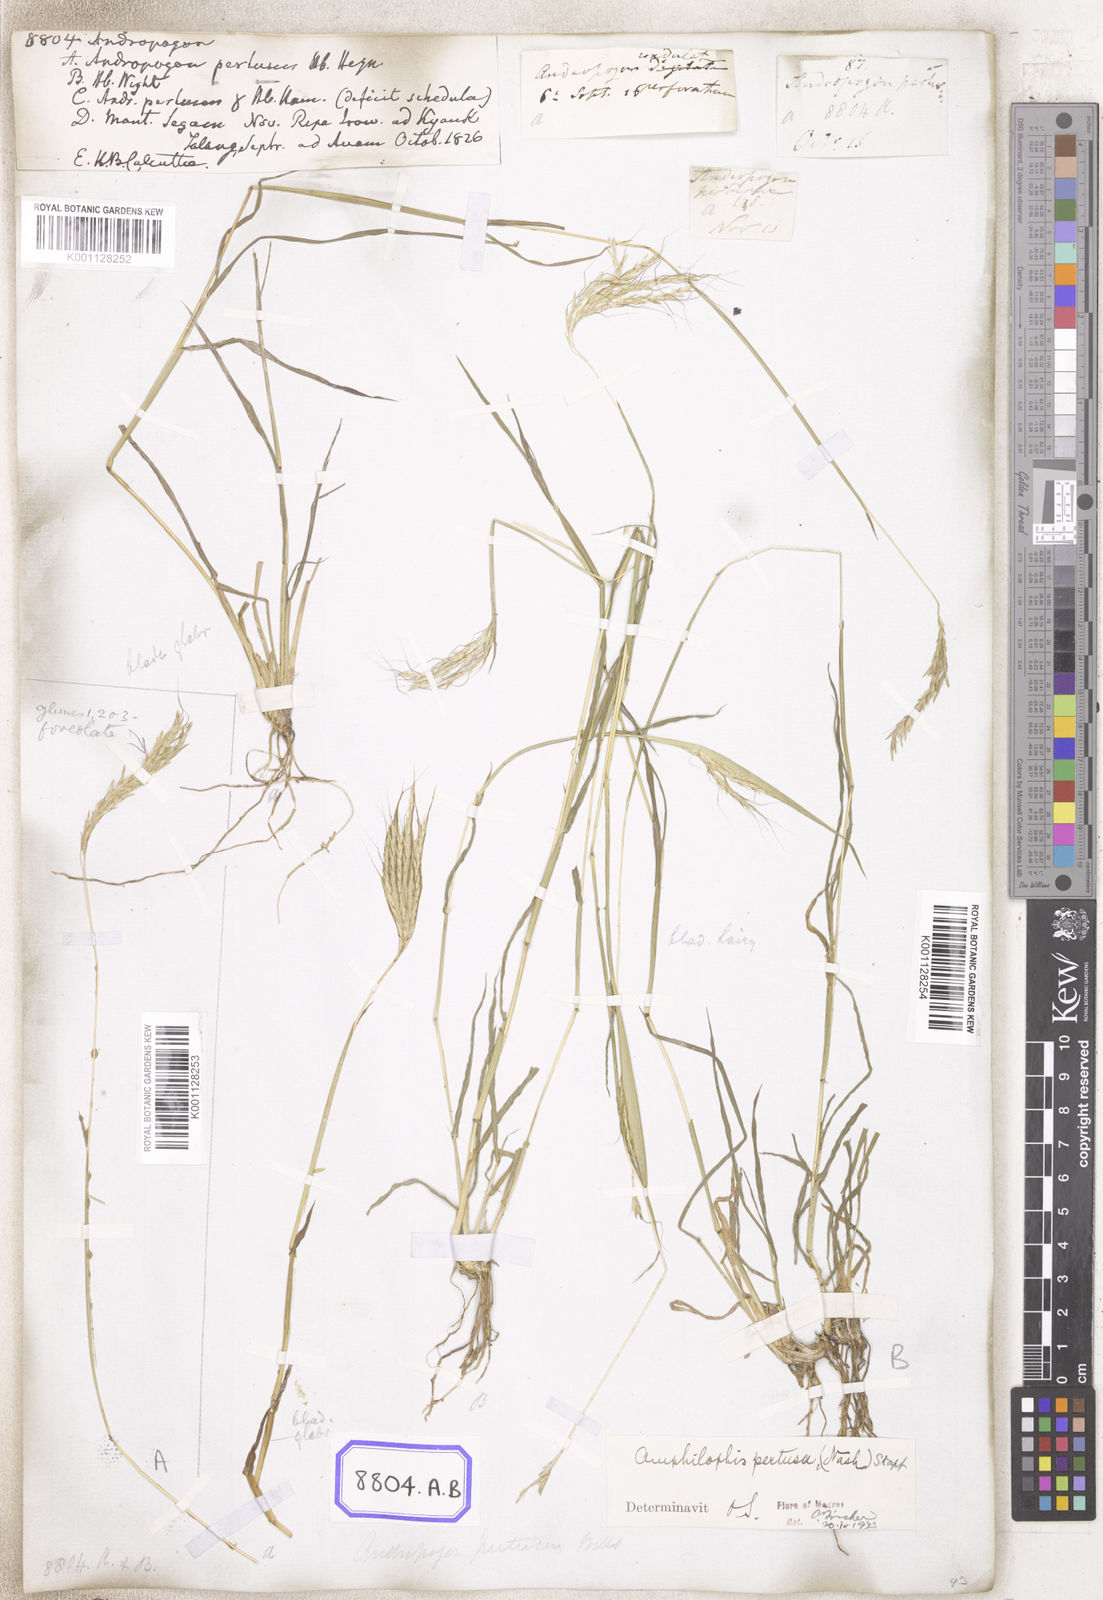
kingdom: Plantae
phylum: Tracheophyta
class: Liliopsida
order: Poales
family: Poaceae
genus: Andropogon
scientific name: Andropogon
